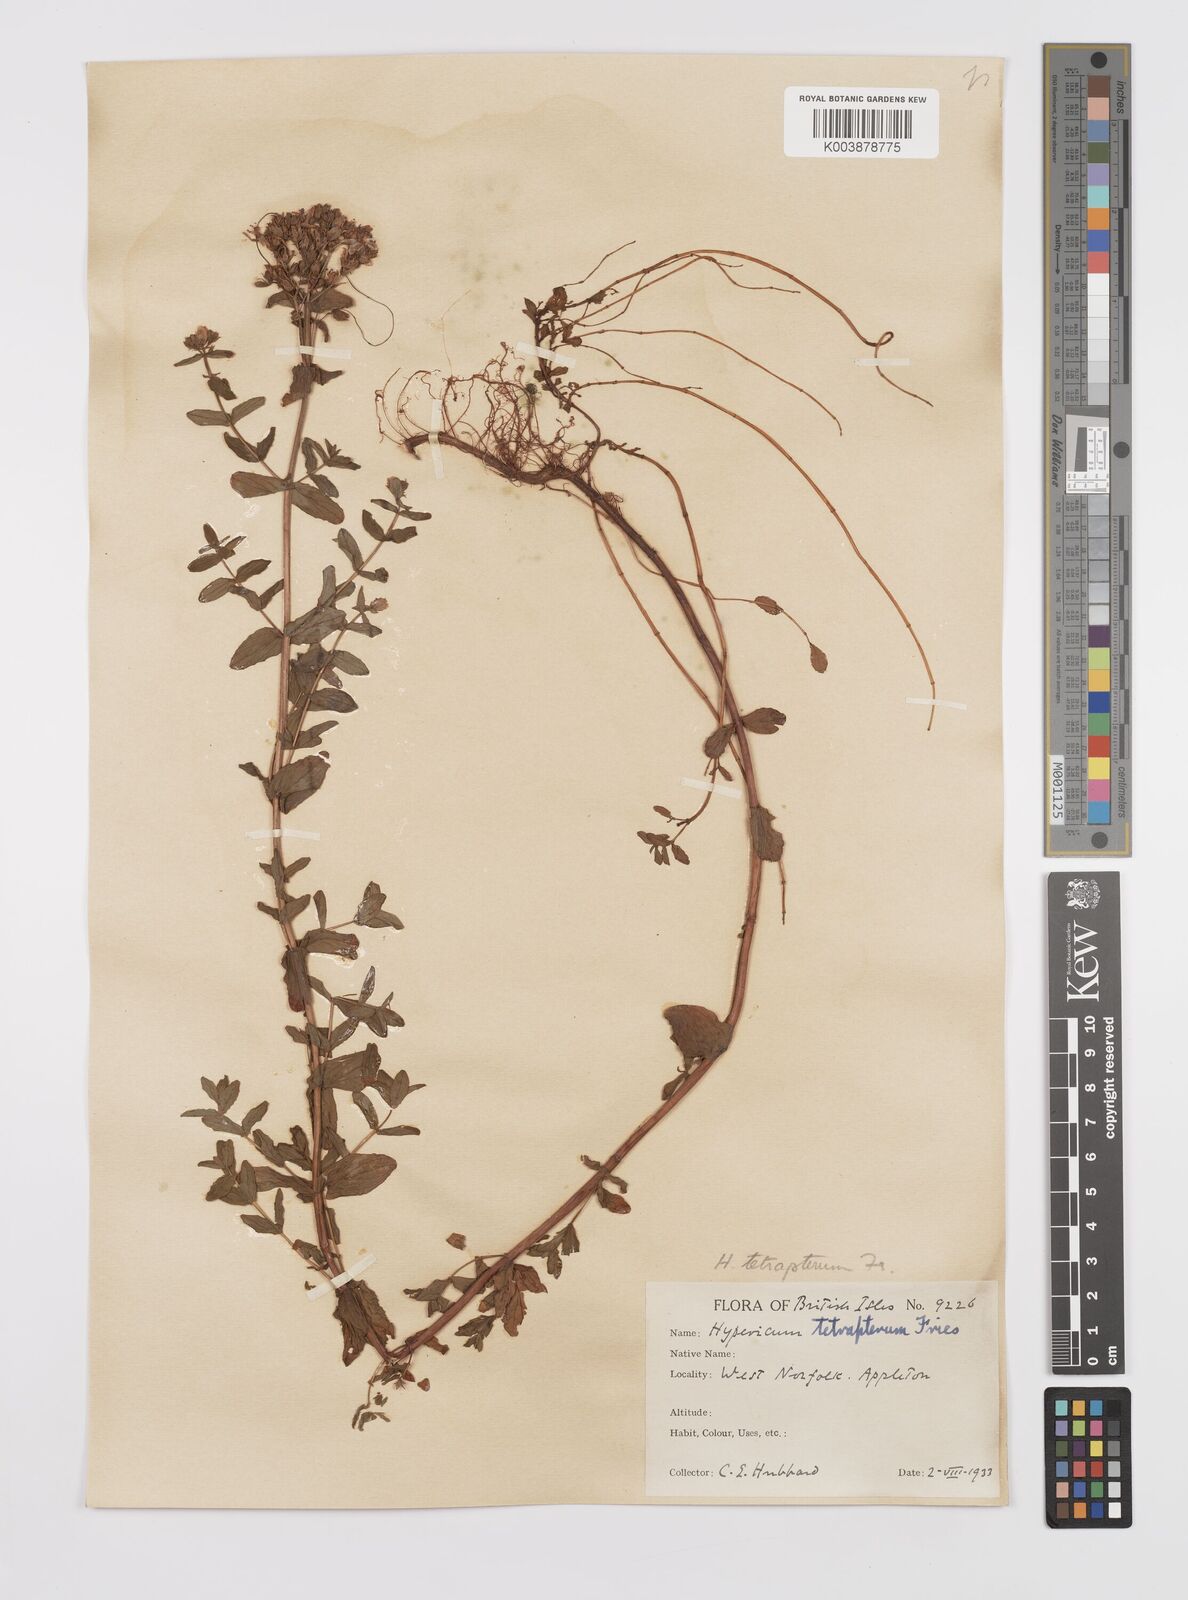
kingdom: Plantae
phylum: Tracheophyta
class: Magnoliopsida
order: Malpighiales
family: Hypericaceae
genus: Hypericum
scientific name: Hypericum tetrapterum
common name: Square-stalked st. john's-wort
